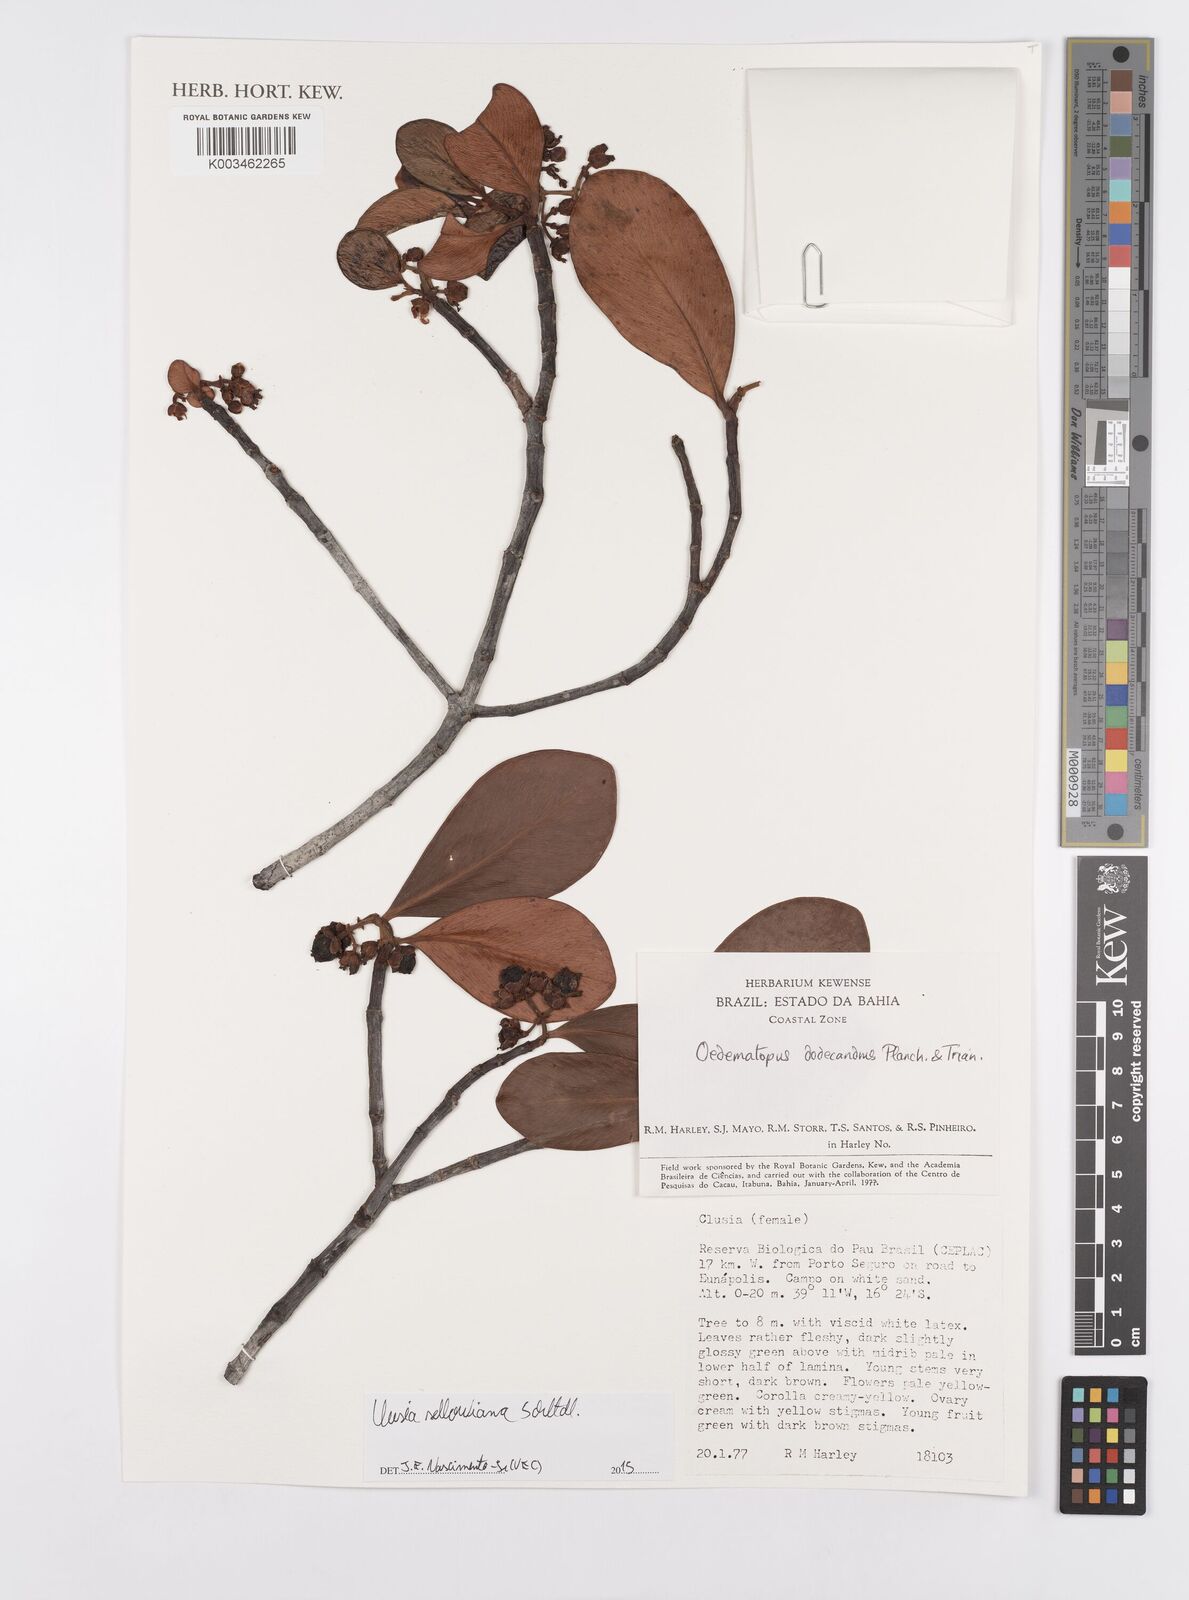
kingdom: Plantae
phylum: Tracheophyta
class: Magnoliopsida
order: Malpighiales
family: Clusiaceae
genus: Clusia
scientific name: Clusia sellowiana
